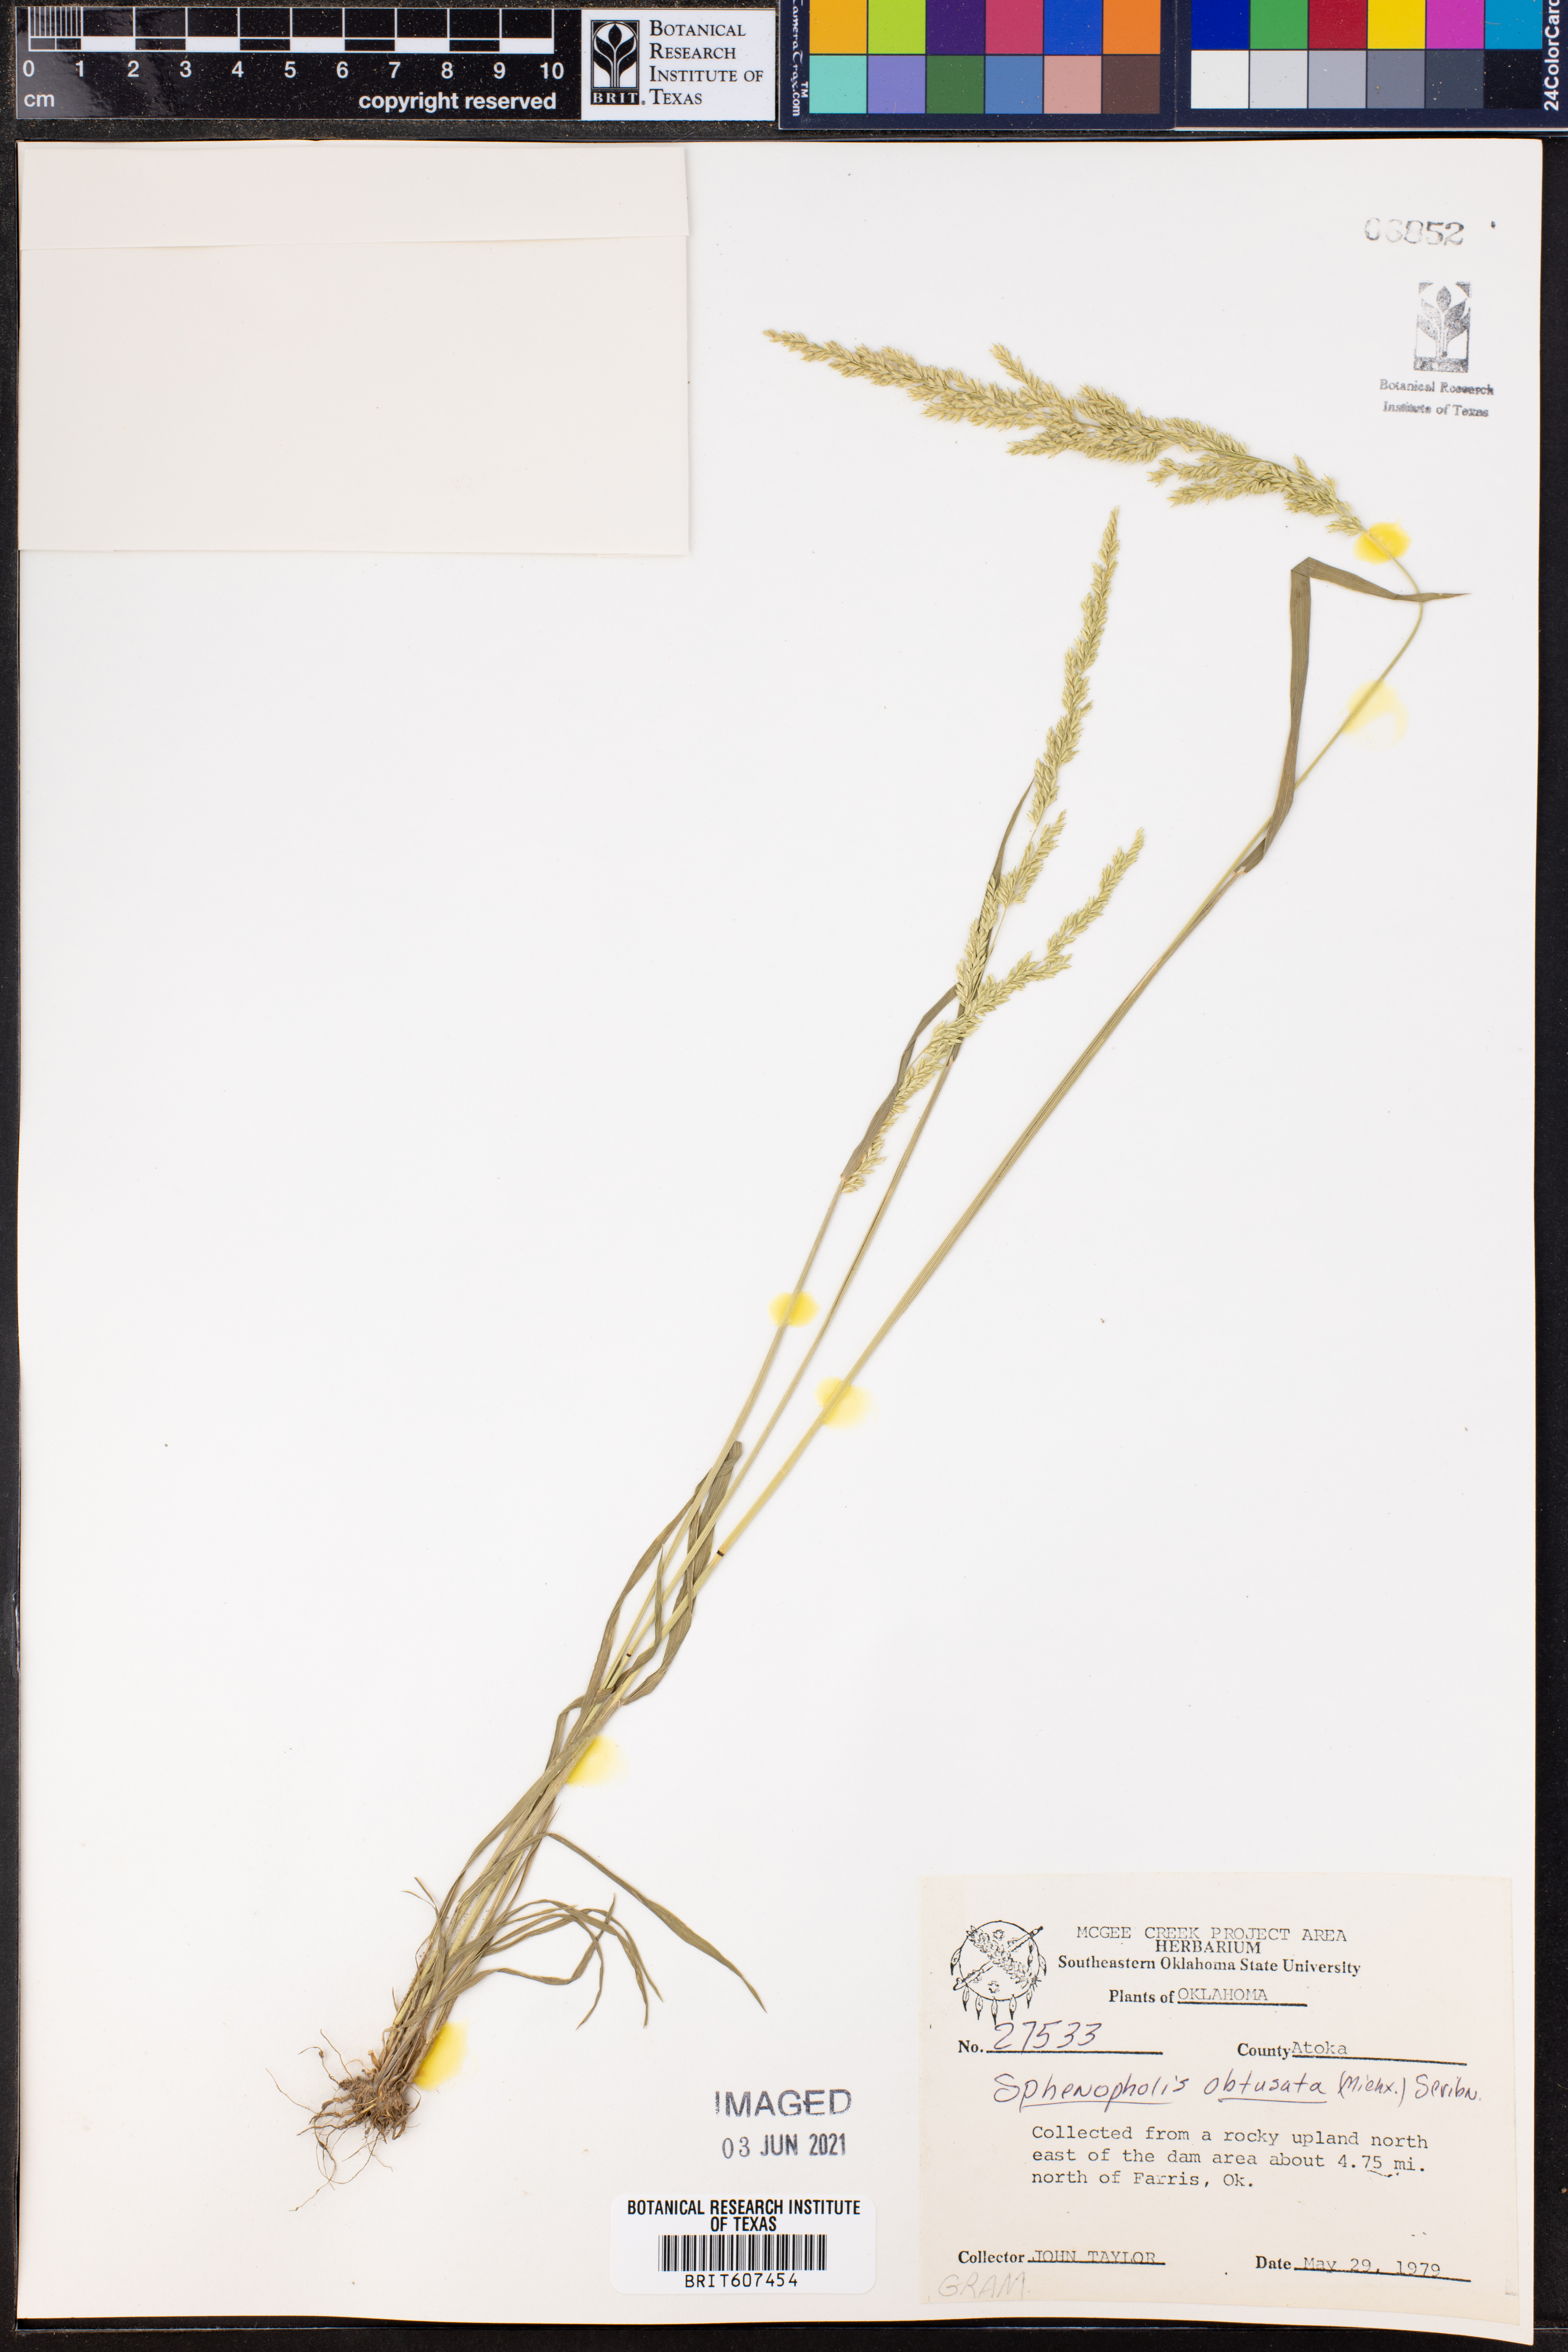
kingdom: Plantae
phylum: Tracheophyta
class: Liliopsida
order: Poales
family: Poaceae
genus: Sphenopholis
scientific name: Sphenopholis obtusata
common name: Prairie grass
